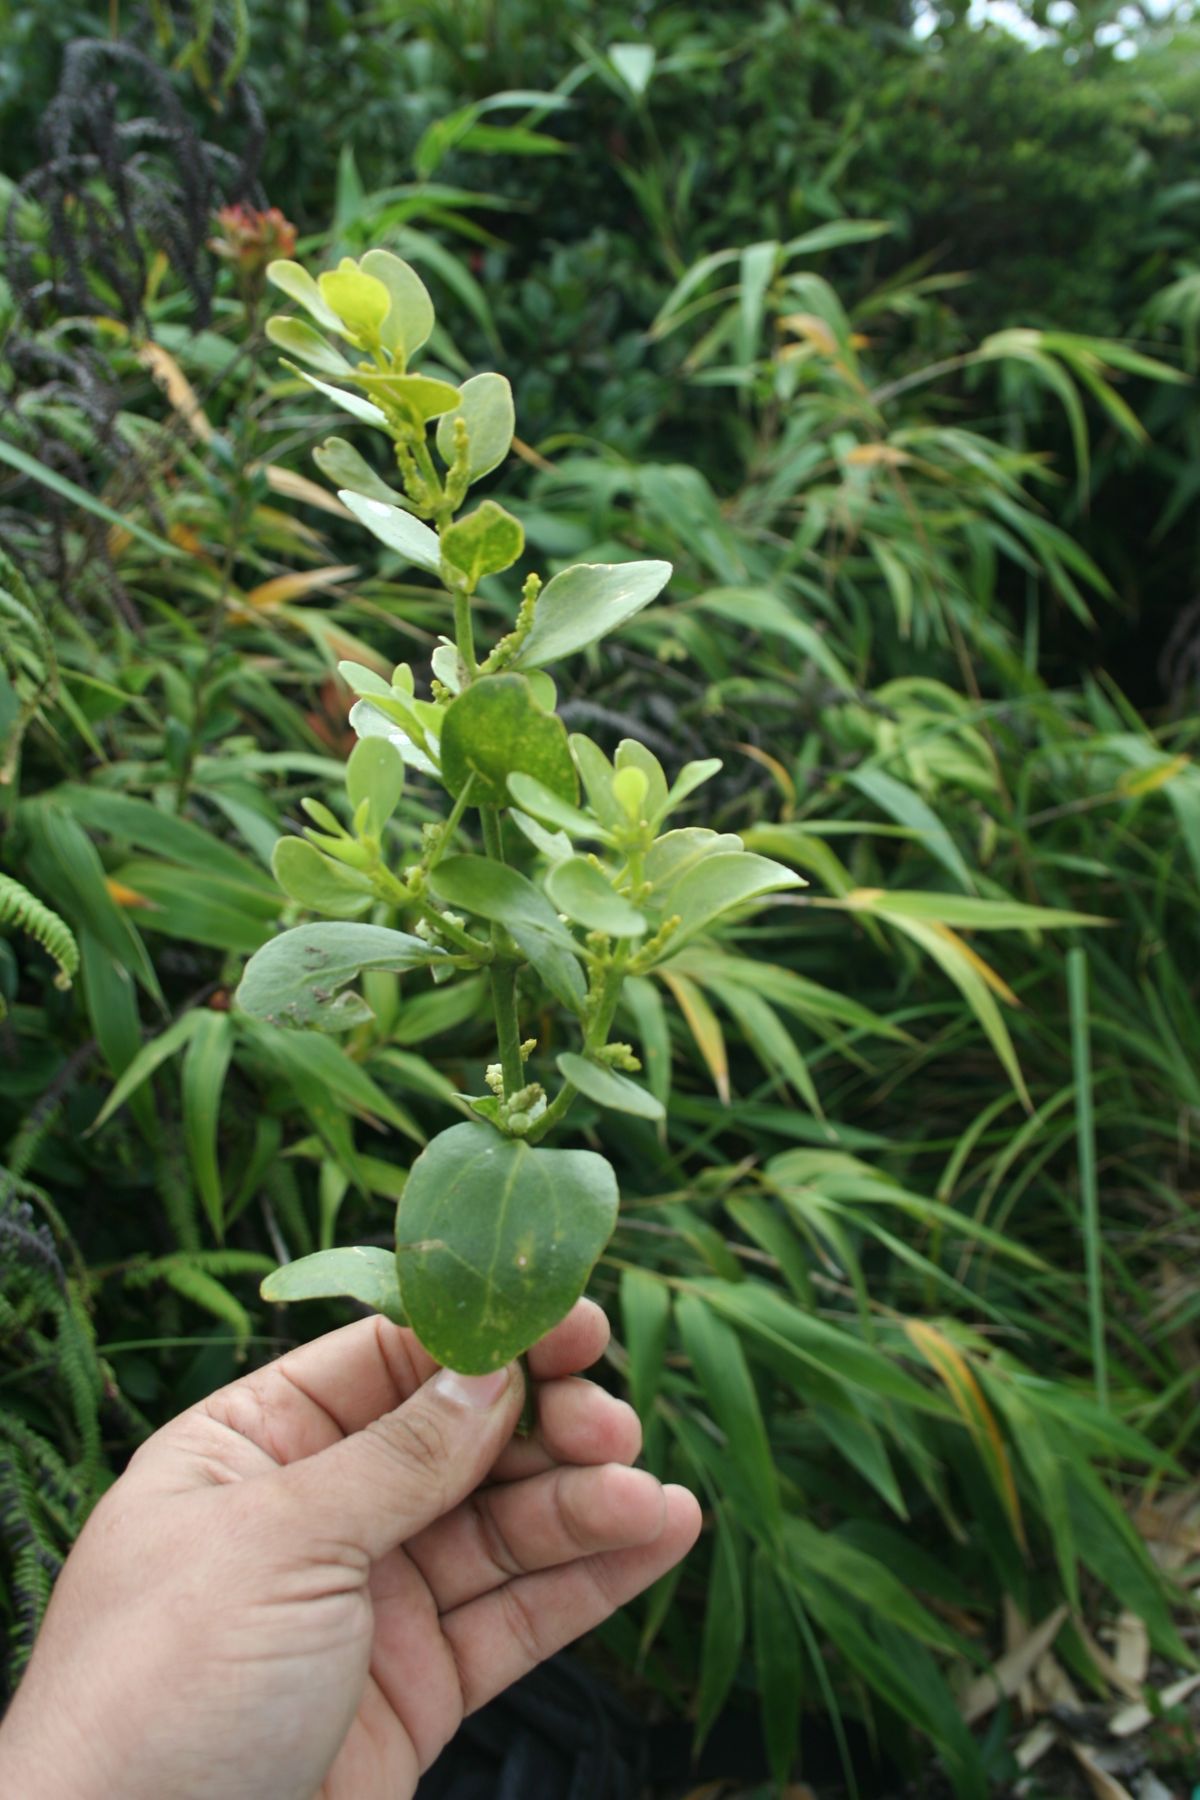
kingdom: Plantae
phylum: Tracheophyta
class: Magnoliopsida
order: Santalales
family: Viscaceae
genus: Phoradendron
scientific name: Phoradendron costaricense
